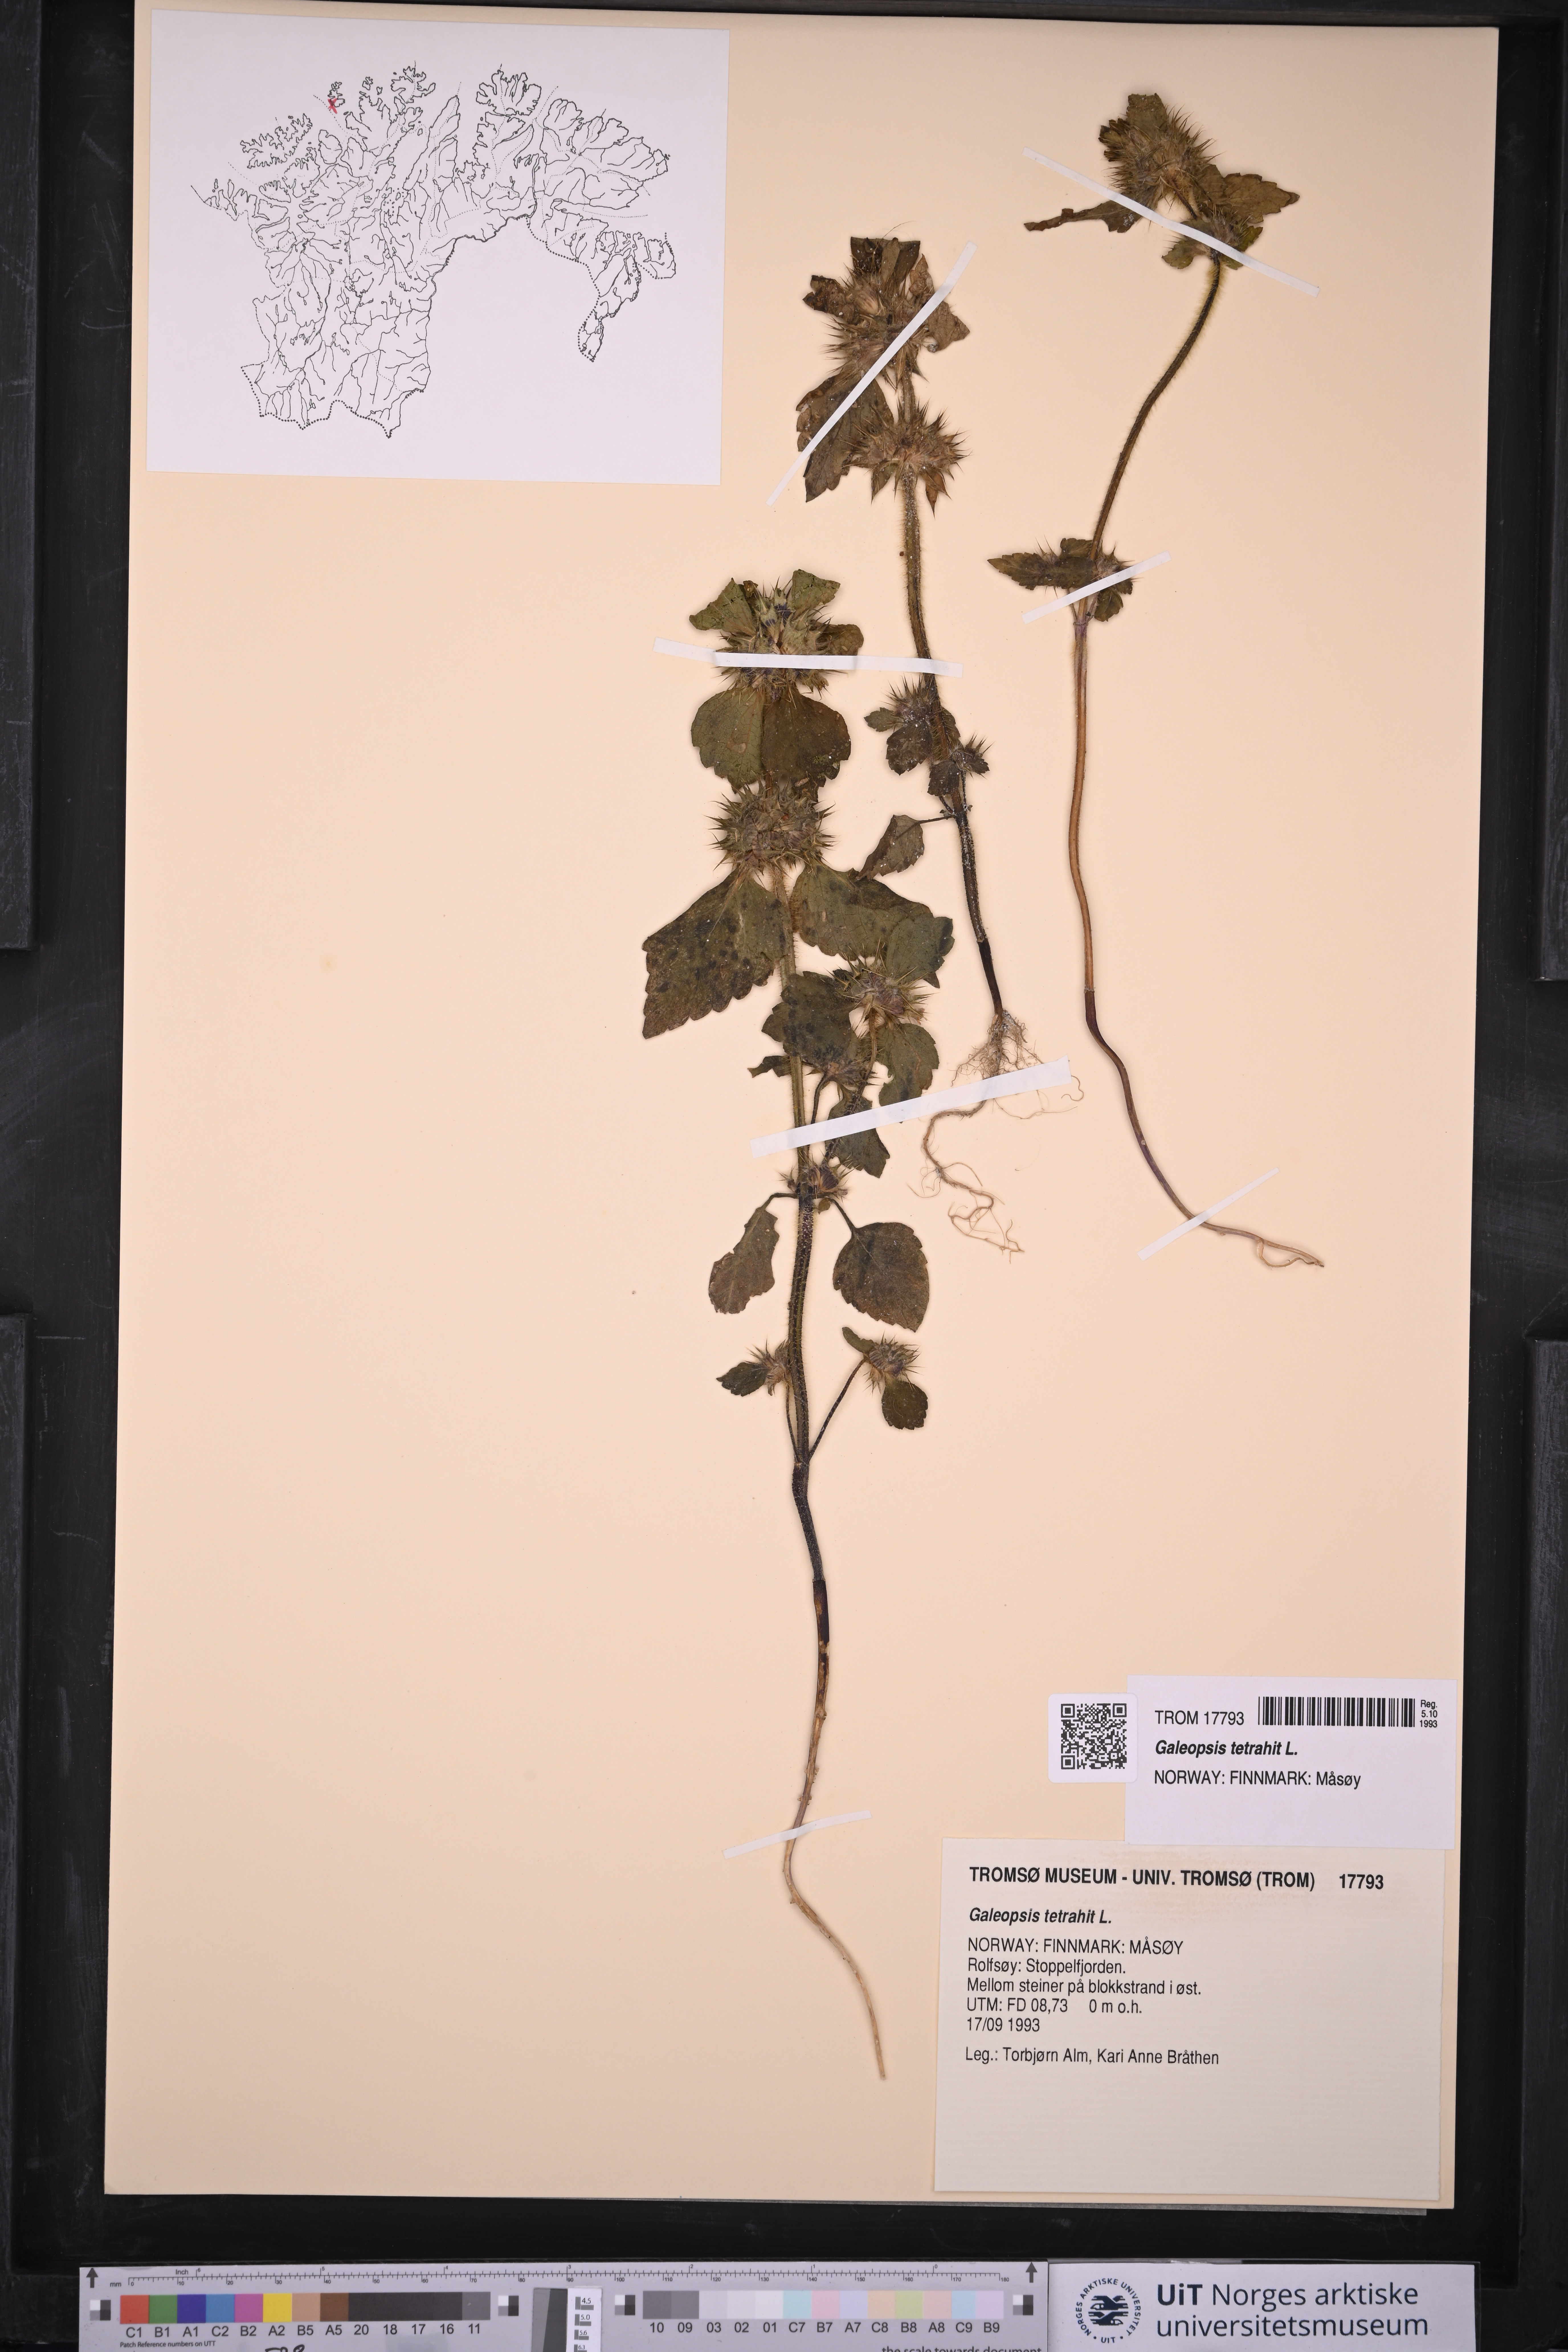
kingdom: Plantae
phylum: Tracheophyta
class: Magnoliopsida
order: Lamiales
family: Lamiaceae
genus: Galeopsis
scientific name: Galeopsis tetrahit
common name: Common hemp-nettle
